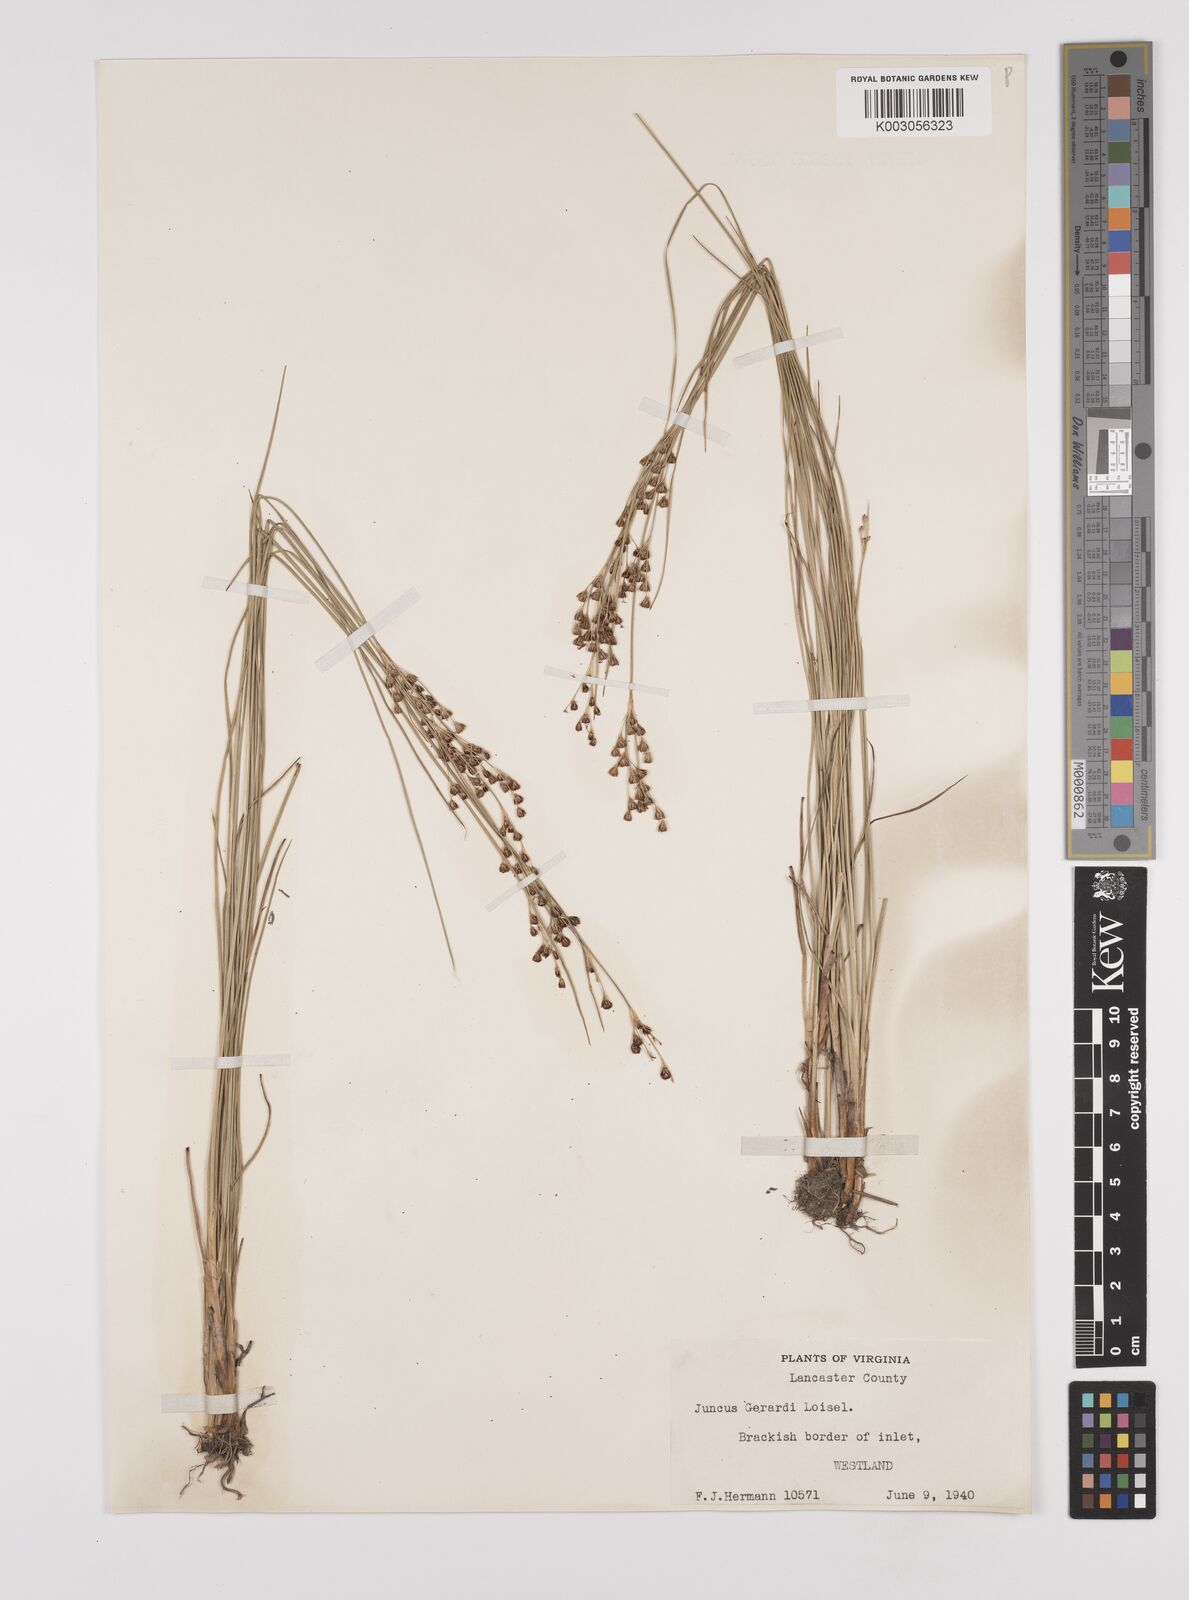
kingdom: Plantae
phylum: Tracheophyta
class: Liliopsida
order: Poales
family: Juncaceae
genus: Juncus
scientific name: Juncus gerardi
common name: Saltmarsh rush
